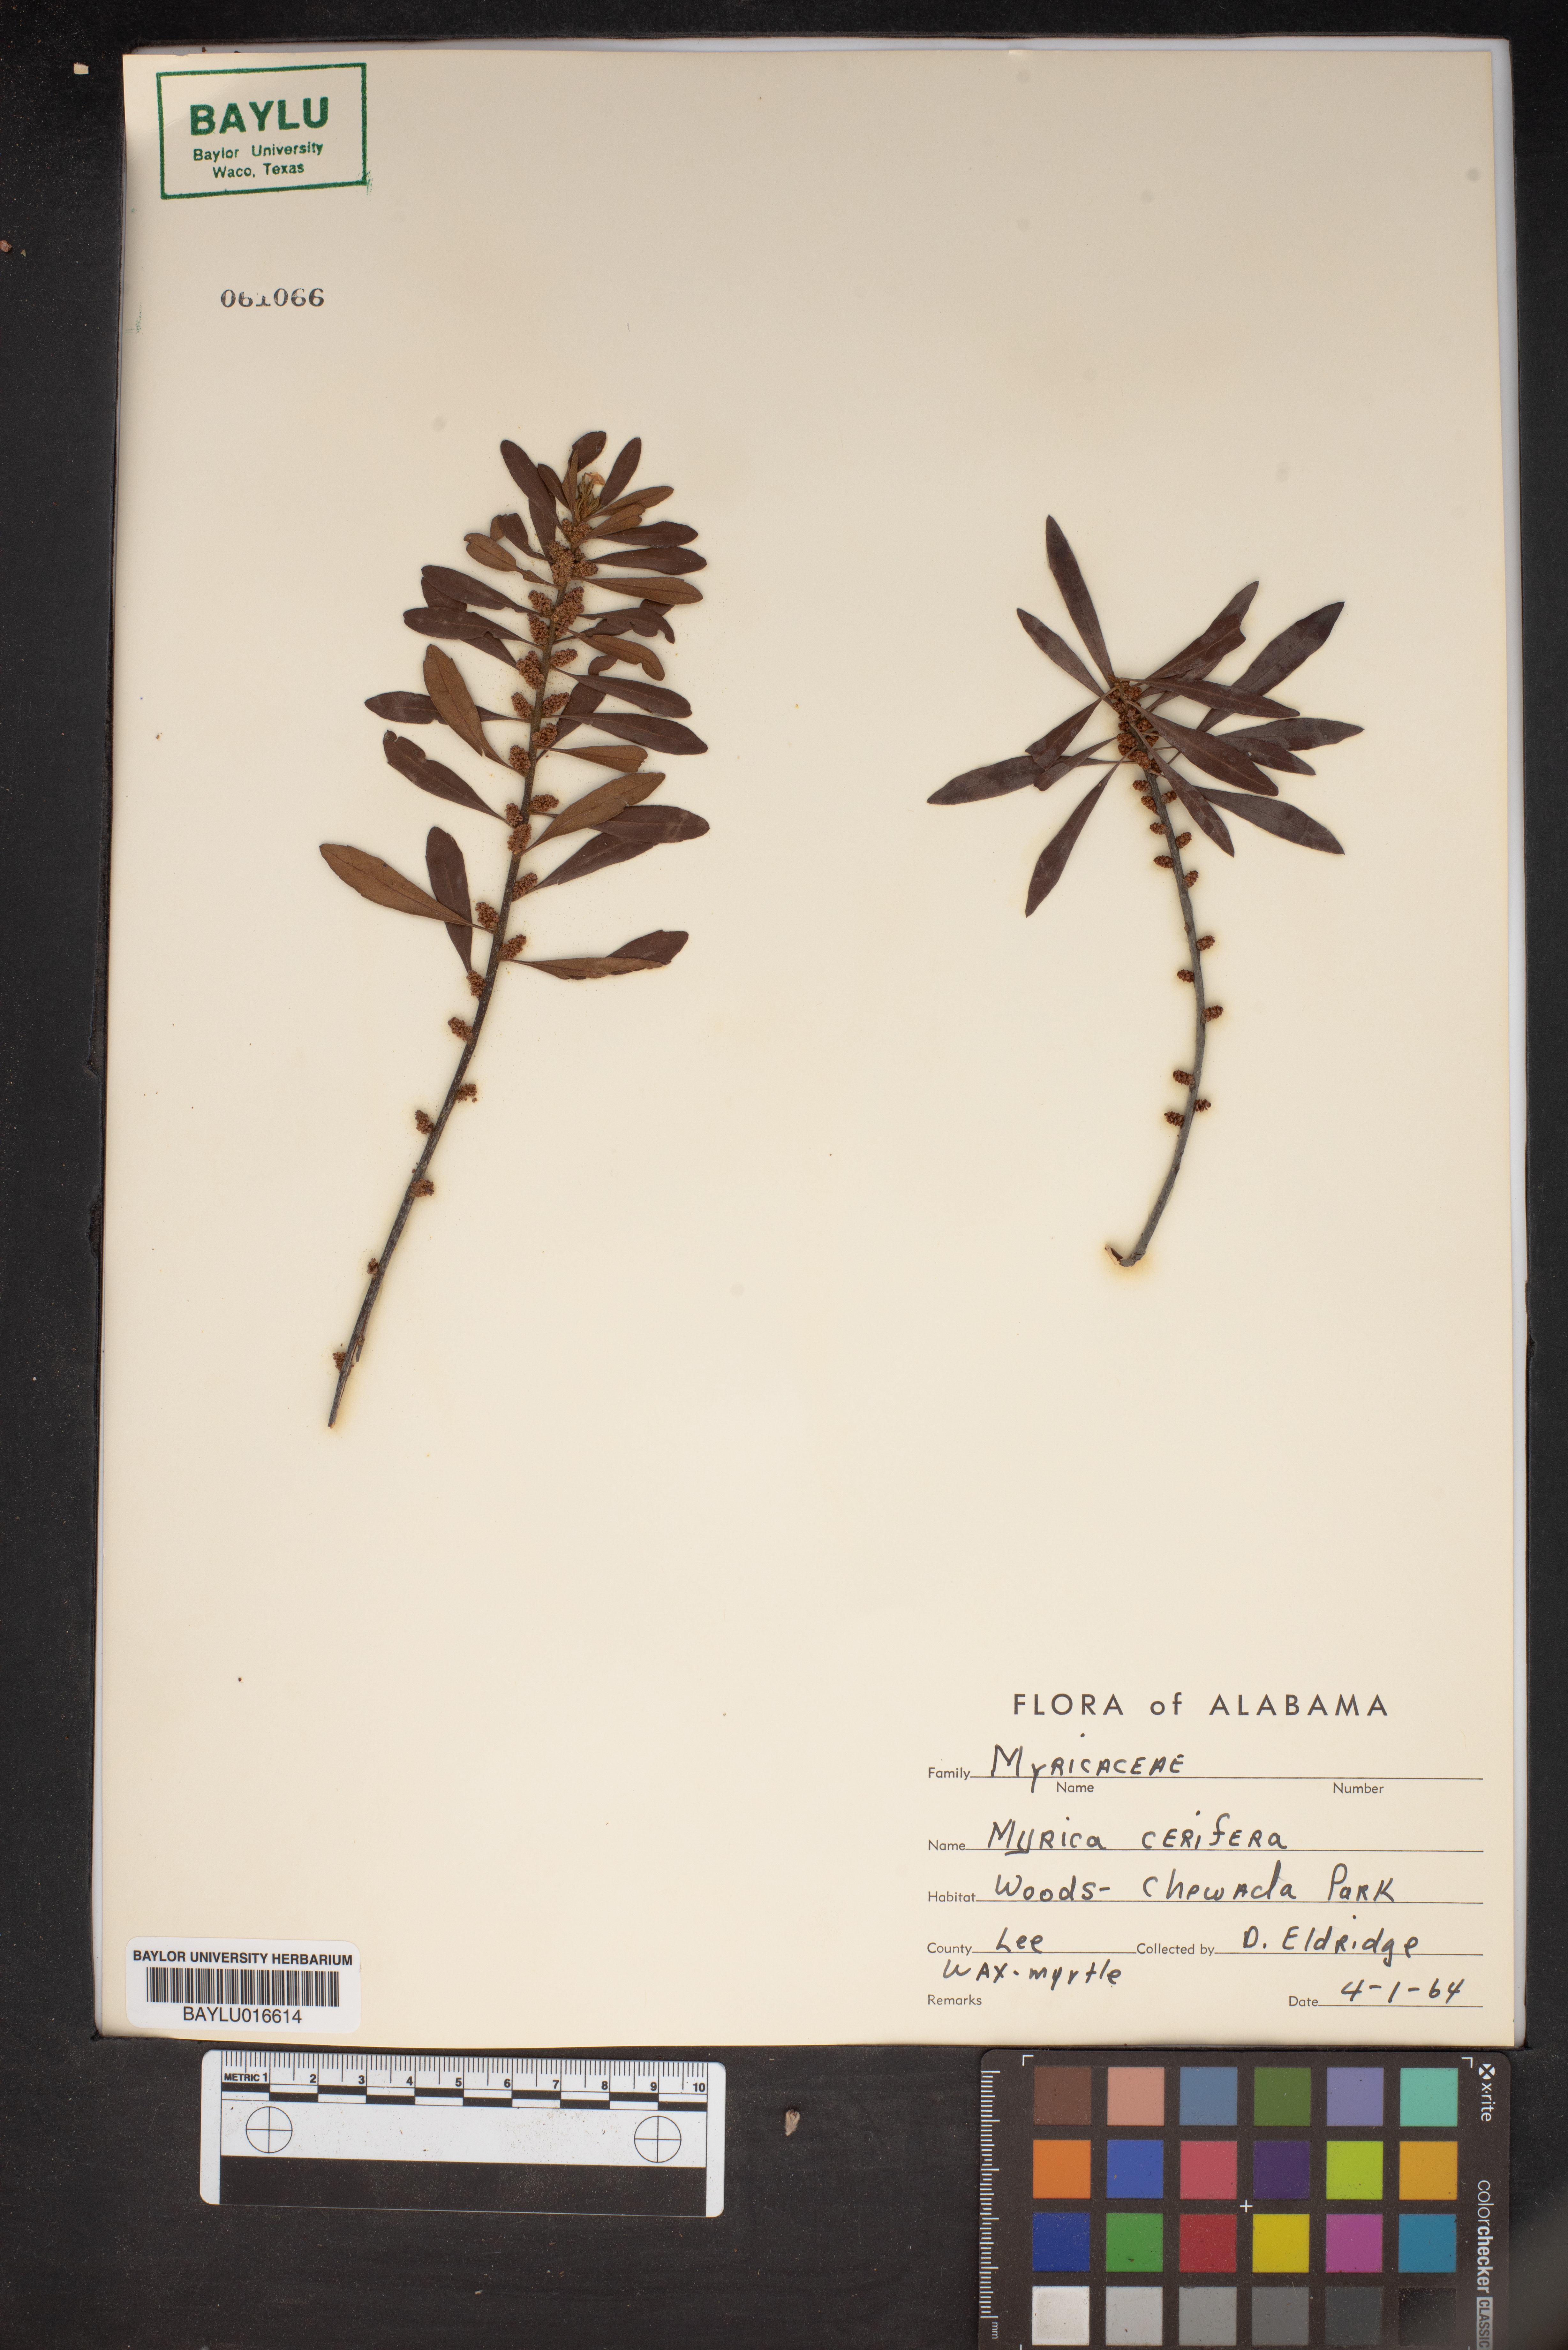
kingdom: Plantae
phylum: Tracheophyta
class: Magnoliopsida
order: Fagales
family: Myricaceae
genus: Morella
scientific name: Morella cerifera
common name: Wax myrtle
